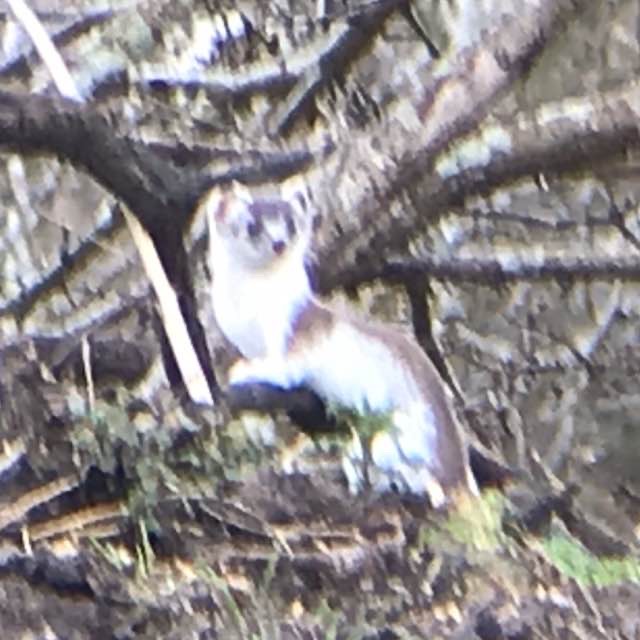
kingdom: Animalia
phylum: Chordata
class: Mammalia
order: Carnivora
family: Mustelidae
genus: Mustela
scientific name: Mustela erminea
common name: Lækat
